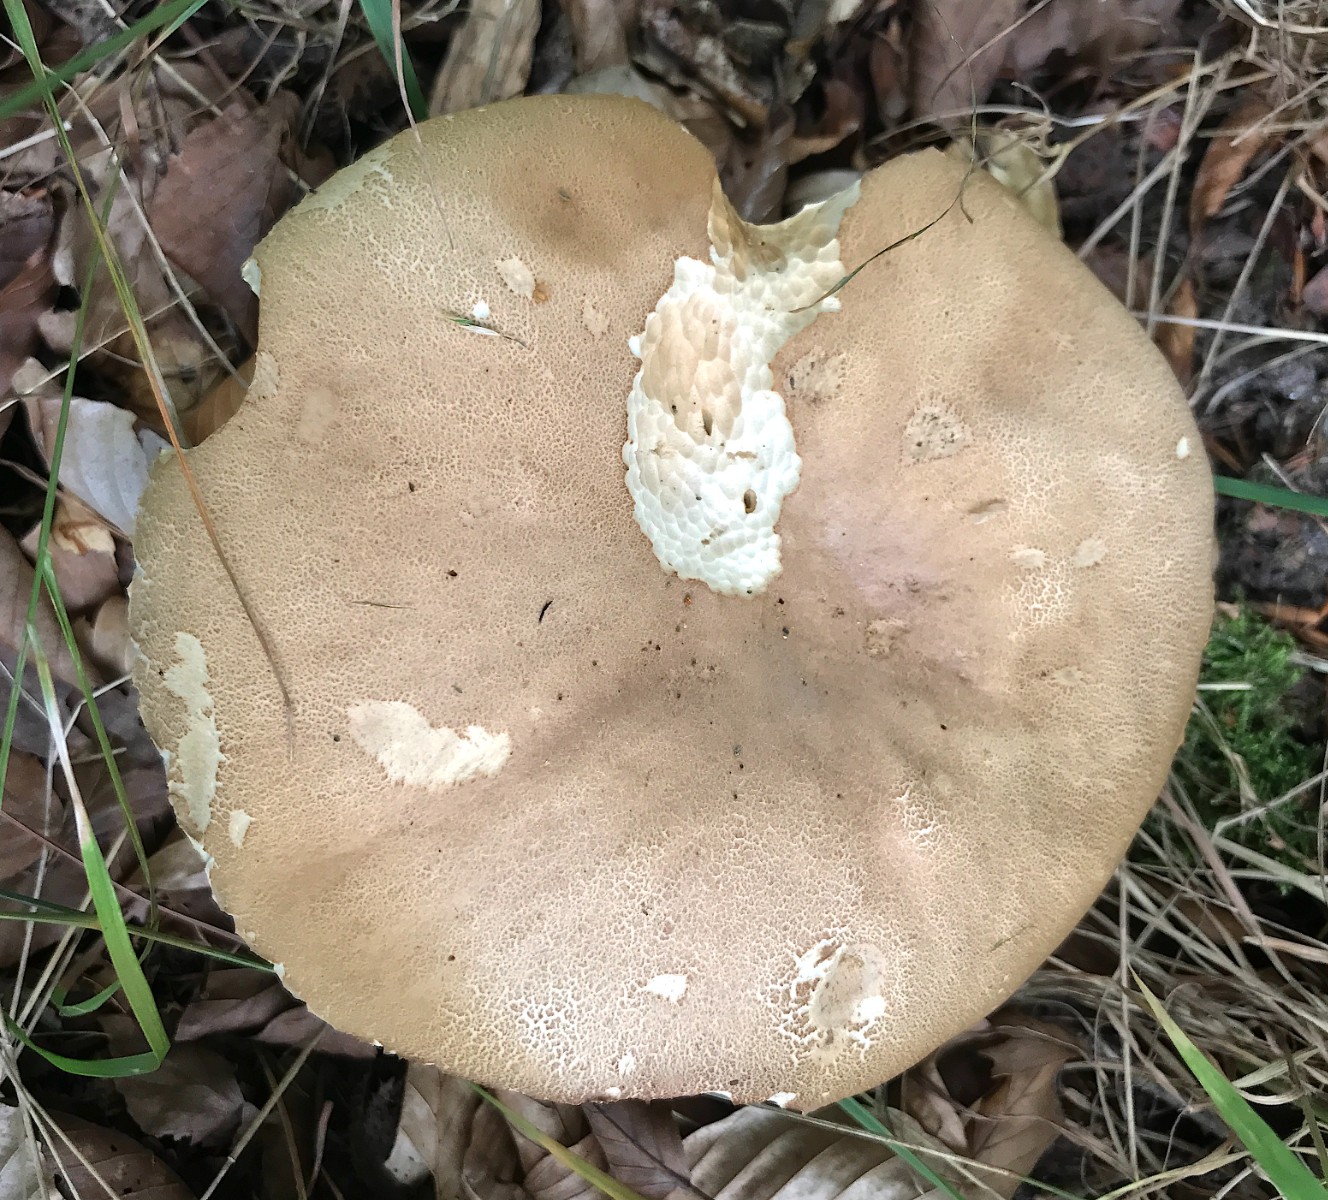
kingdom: Fungi
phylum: Basidiomycota
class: Agaricomycetes
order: Boletales
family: Boletaceae
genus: Boletus
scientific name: Boletus reticulatus
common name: sommer-rørhat
